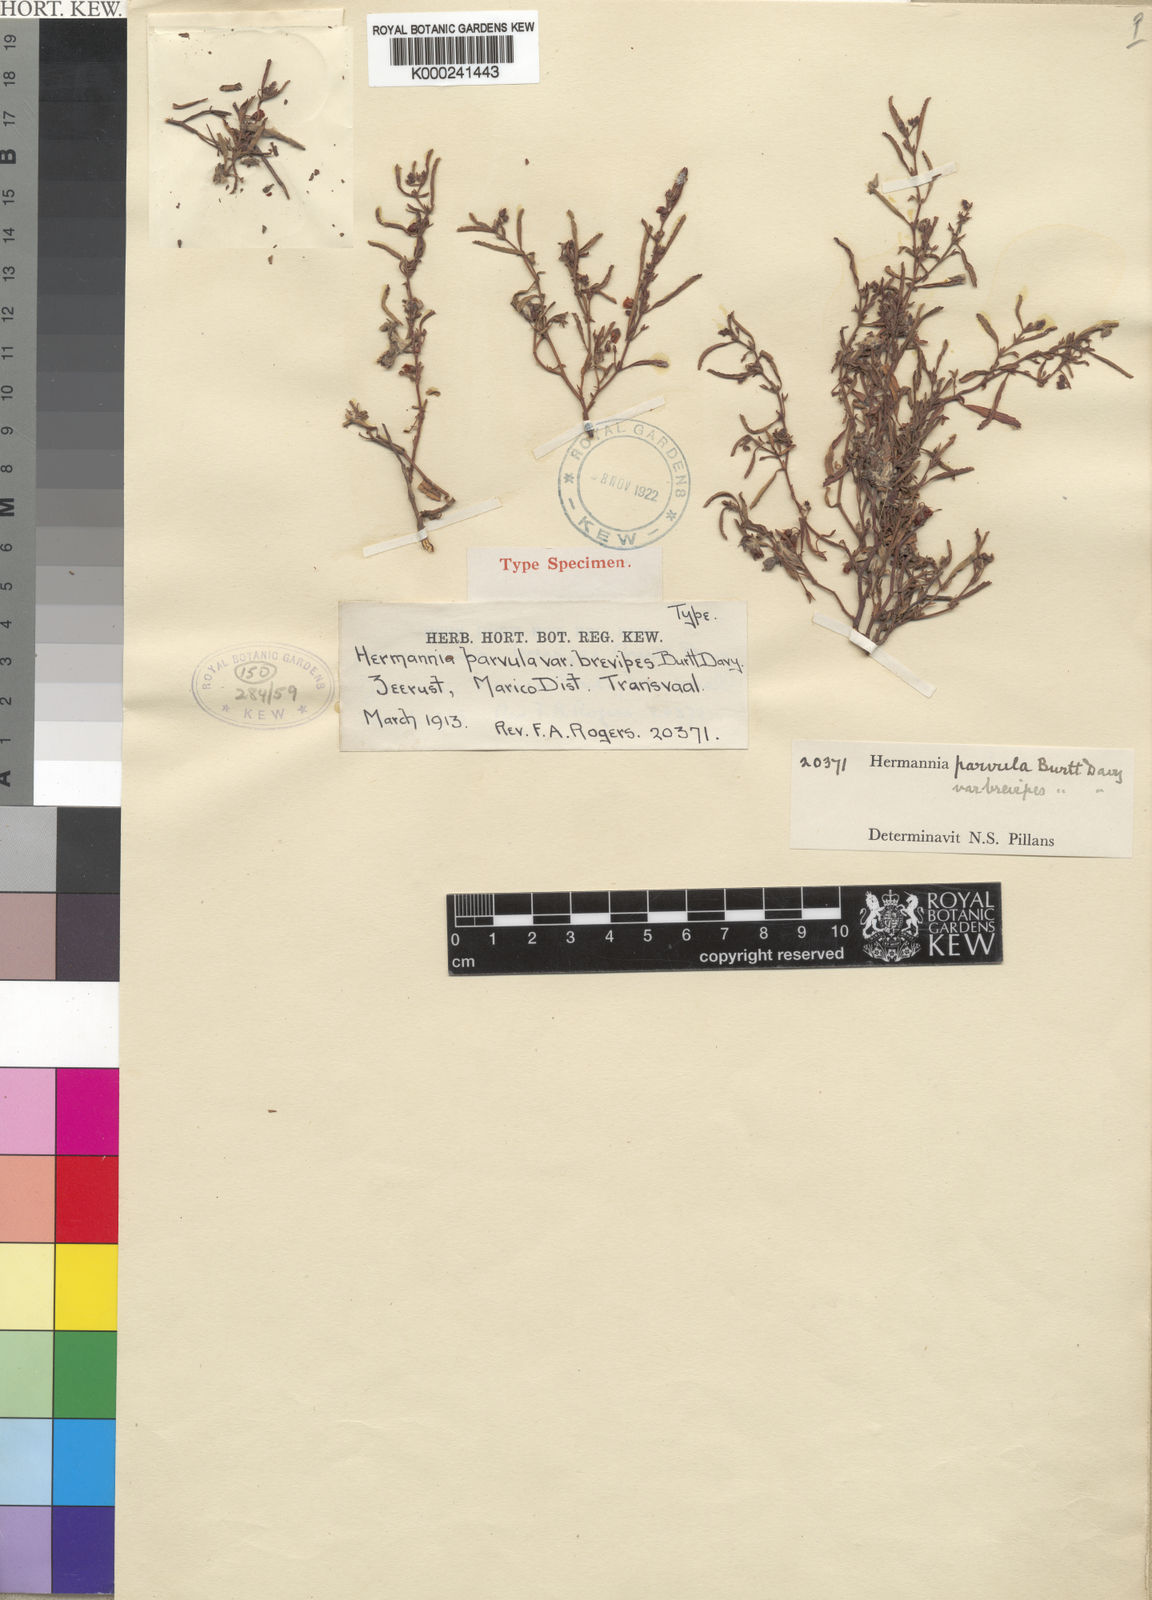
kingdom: Plantae
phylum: Tracheophyta
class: Magnoliopsida
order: Malvales
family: Malvaceae
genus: Hermannia
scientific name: Hermannia parvula
